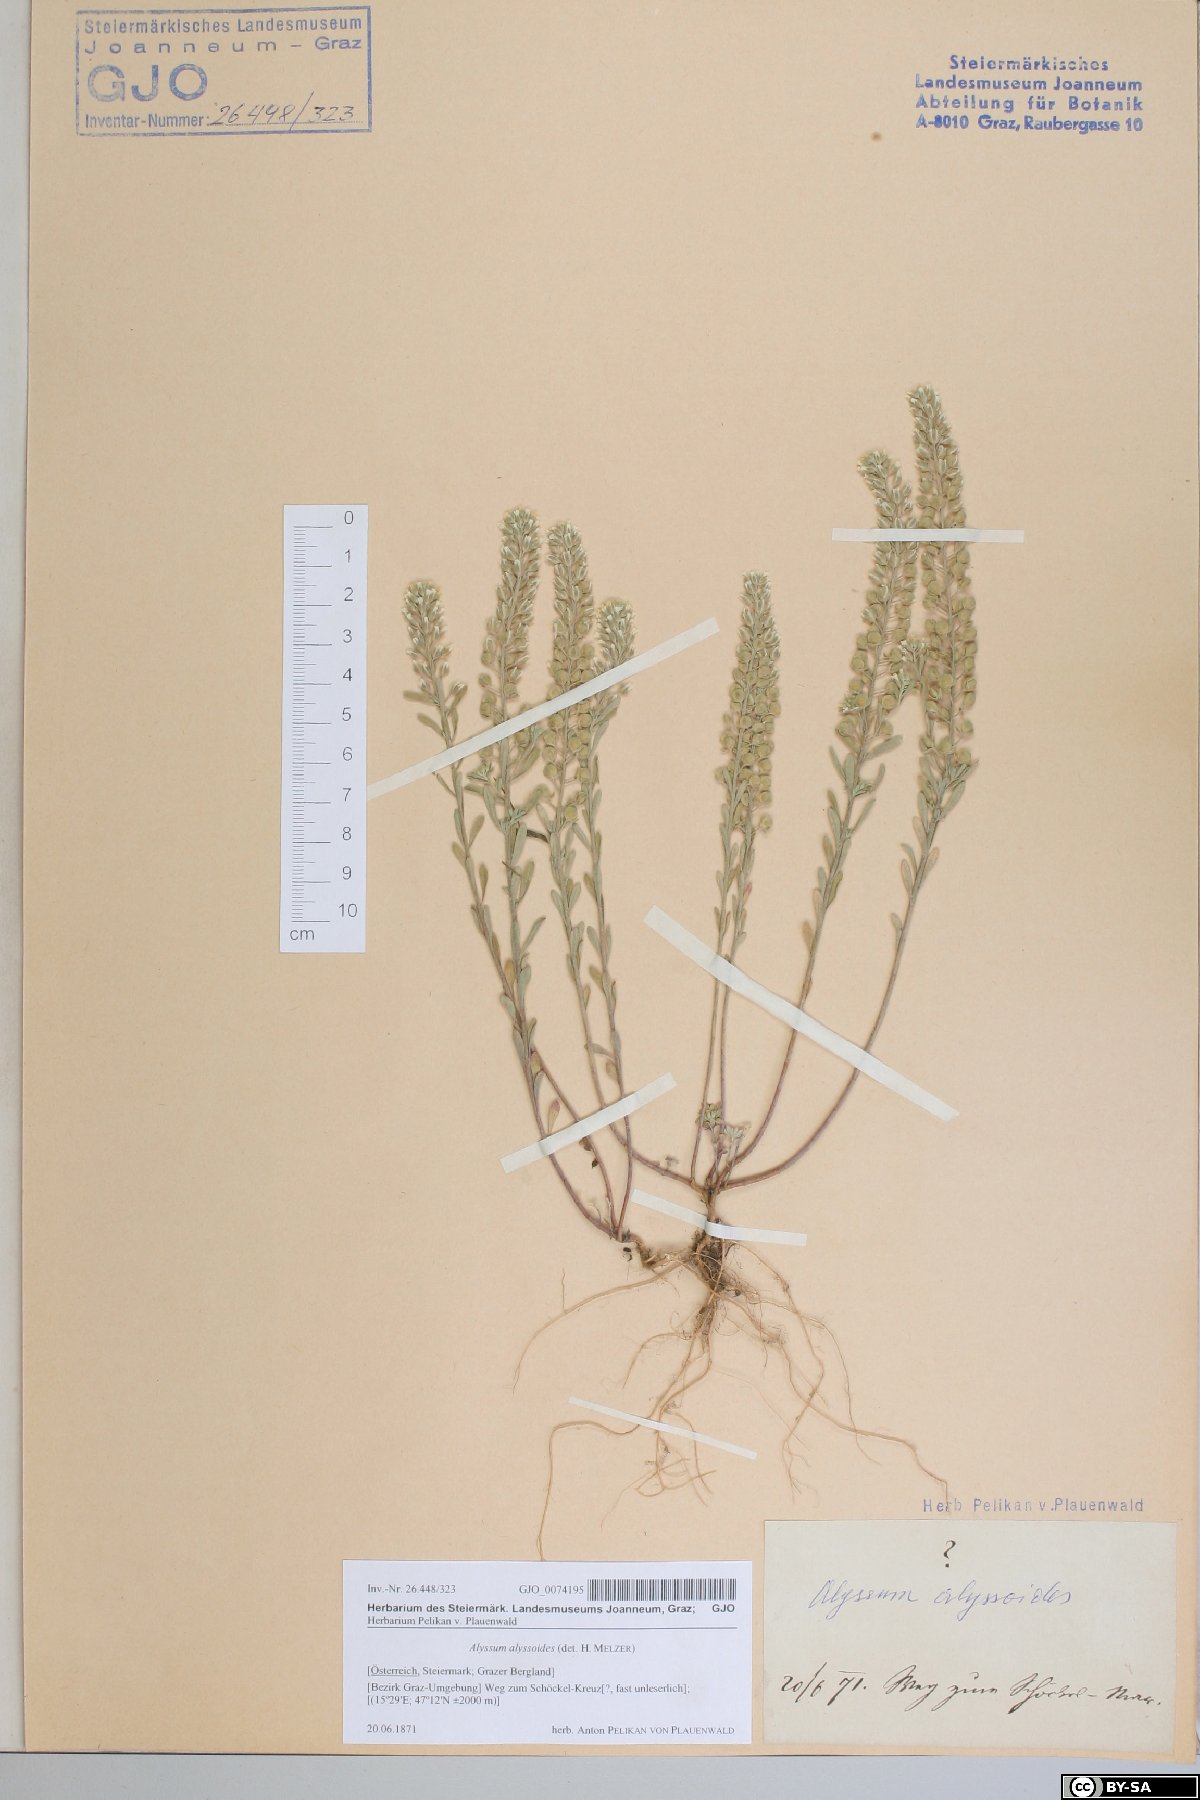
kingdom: Plantae
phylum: Tracheophyta
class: Magnoliopsida
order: Brassicales
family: Brassicaceae
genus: Alyssum
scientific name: Alyssum alyssoides
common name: Small alison
